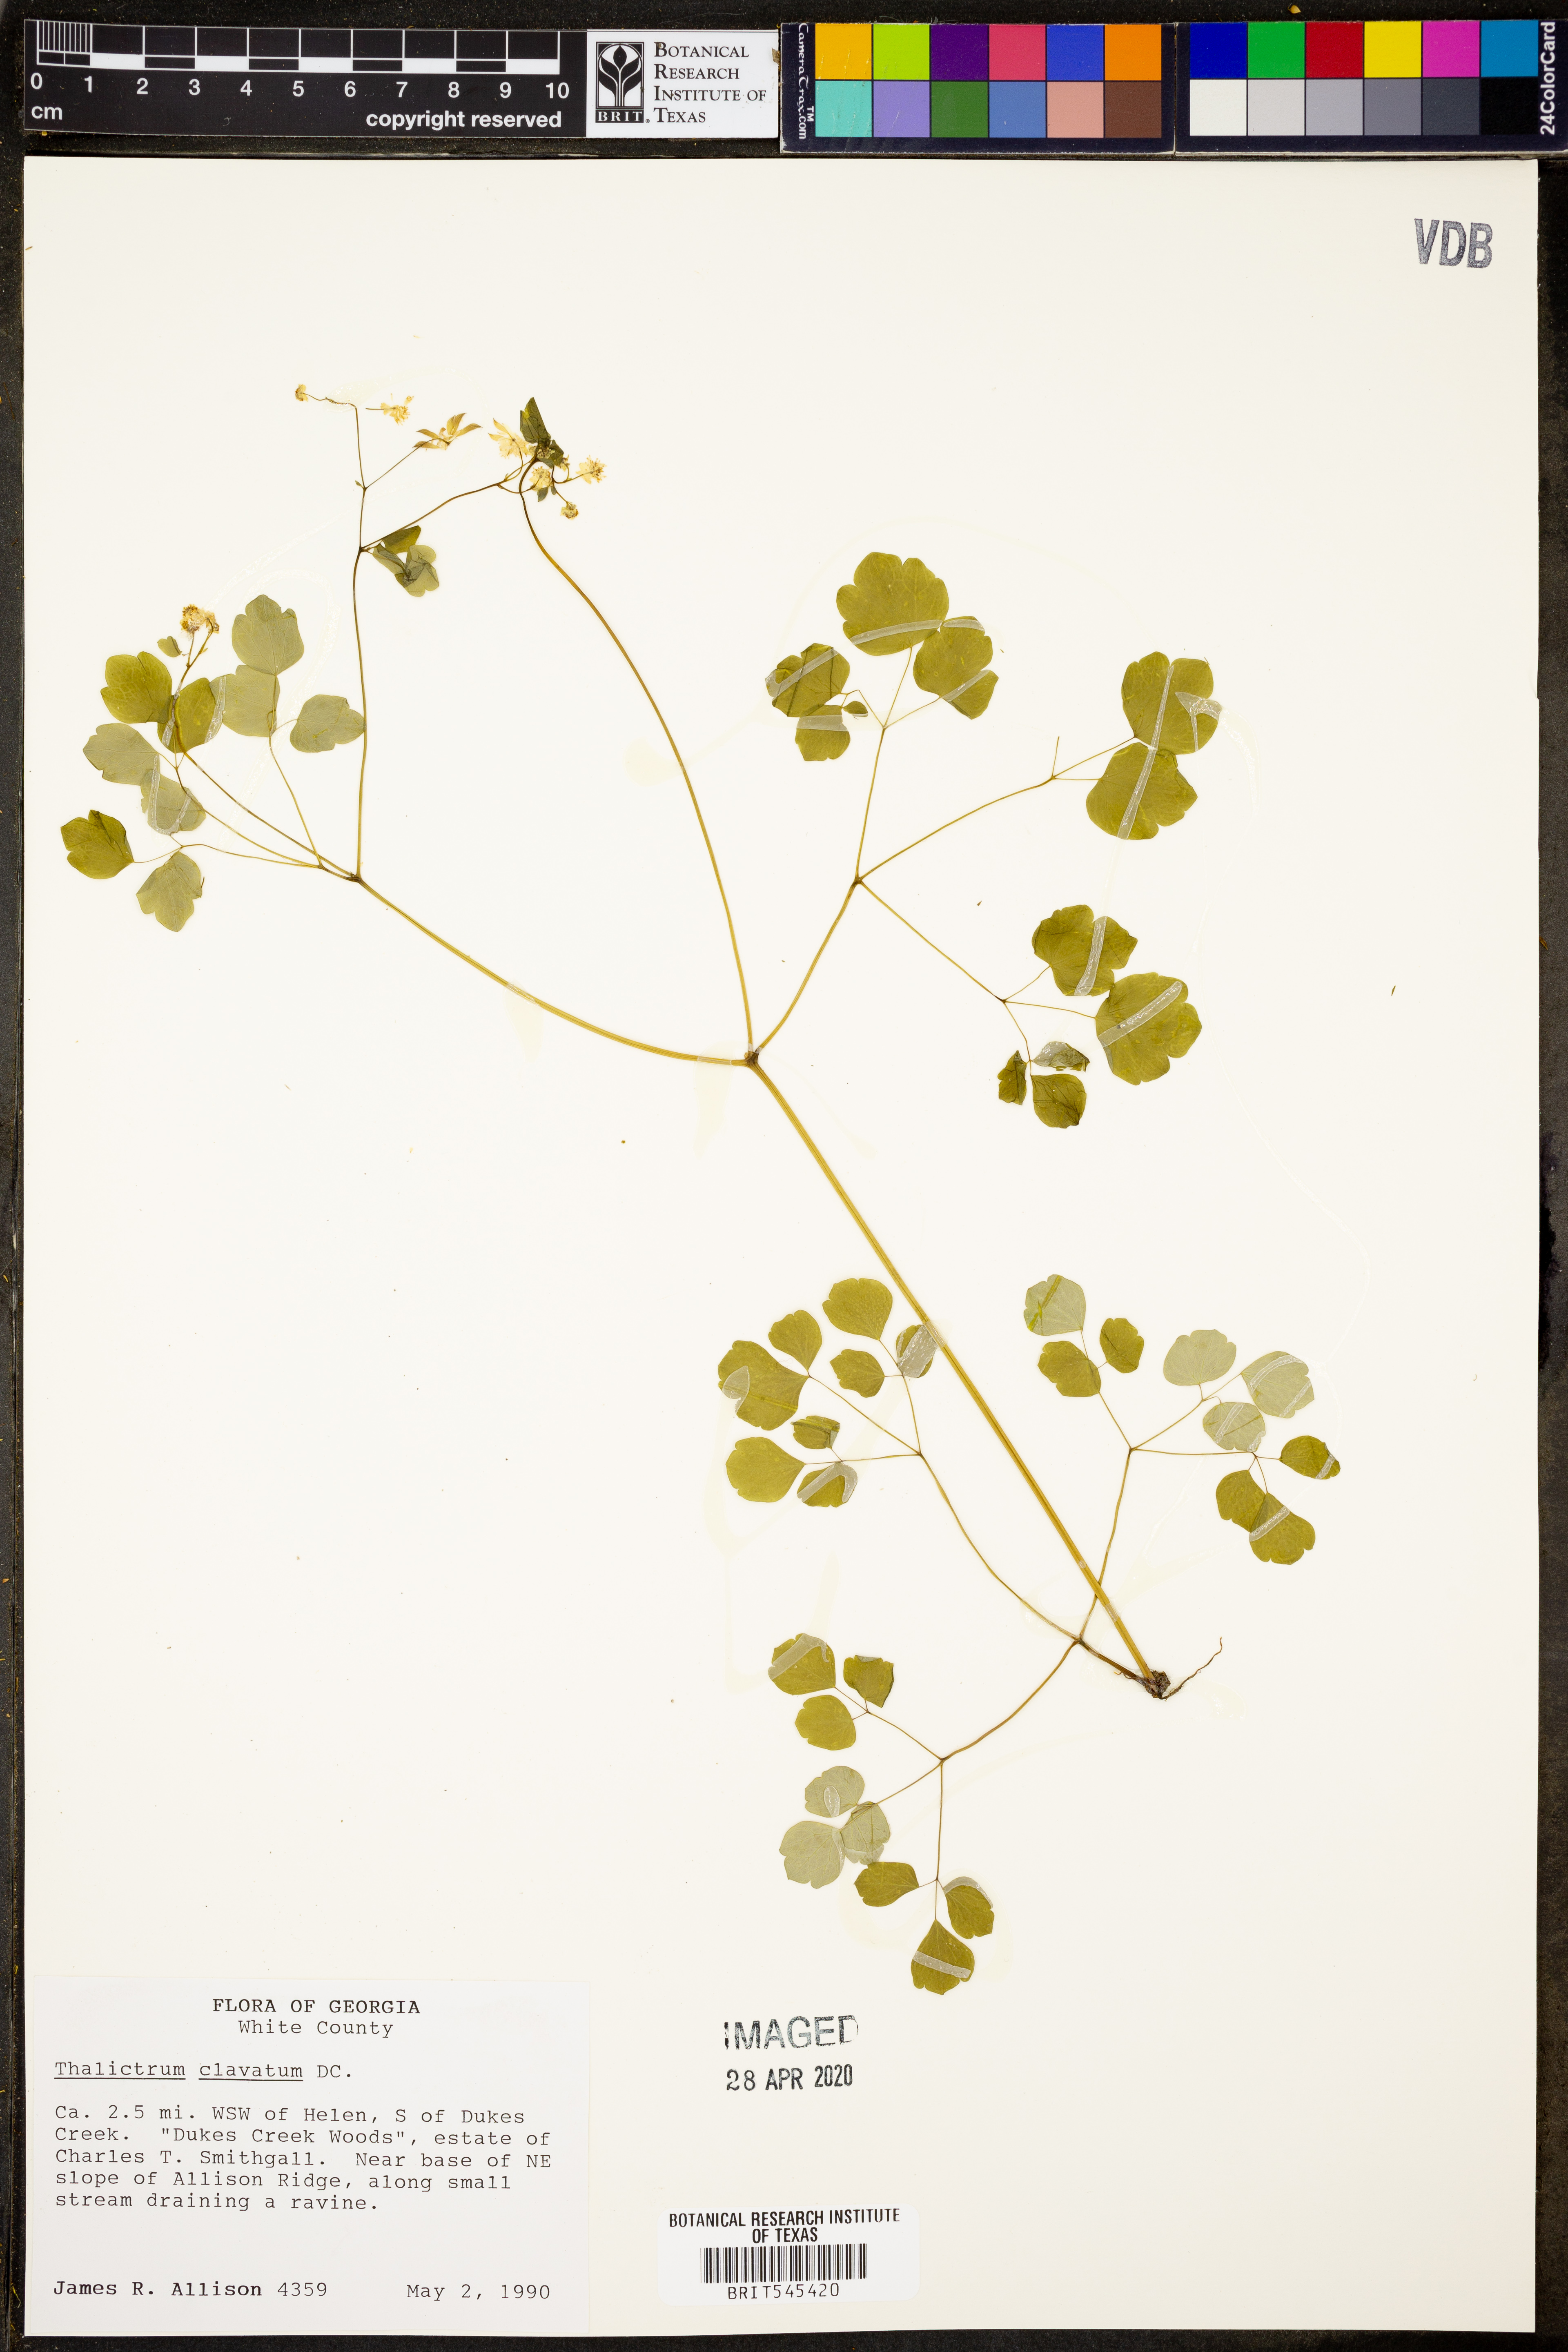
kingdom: Plantae
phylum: Tracheophyta
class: Magnoliopsida
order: Ranunculales
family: Ranunculaceae
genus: Thalictrum
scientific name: Thalictrum clavatum
